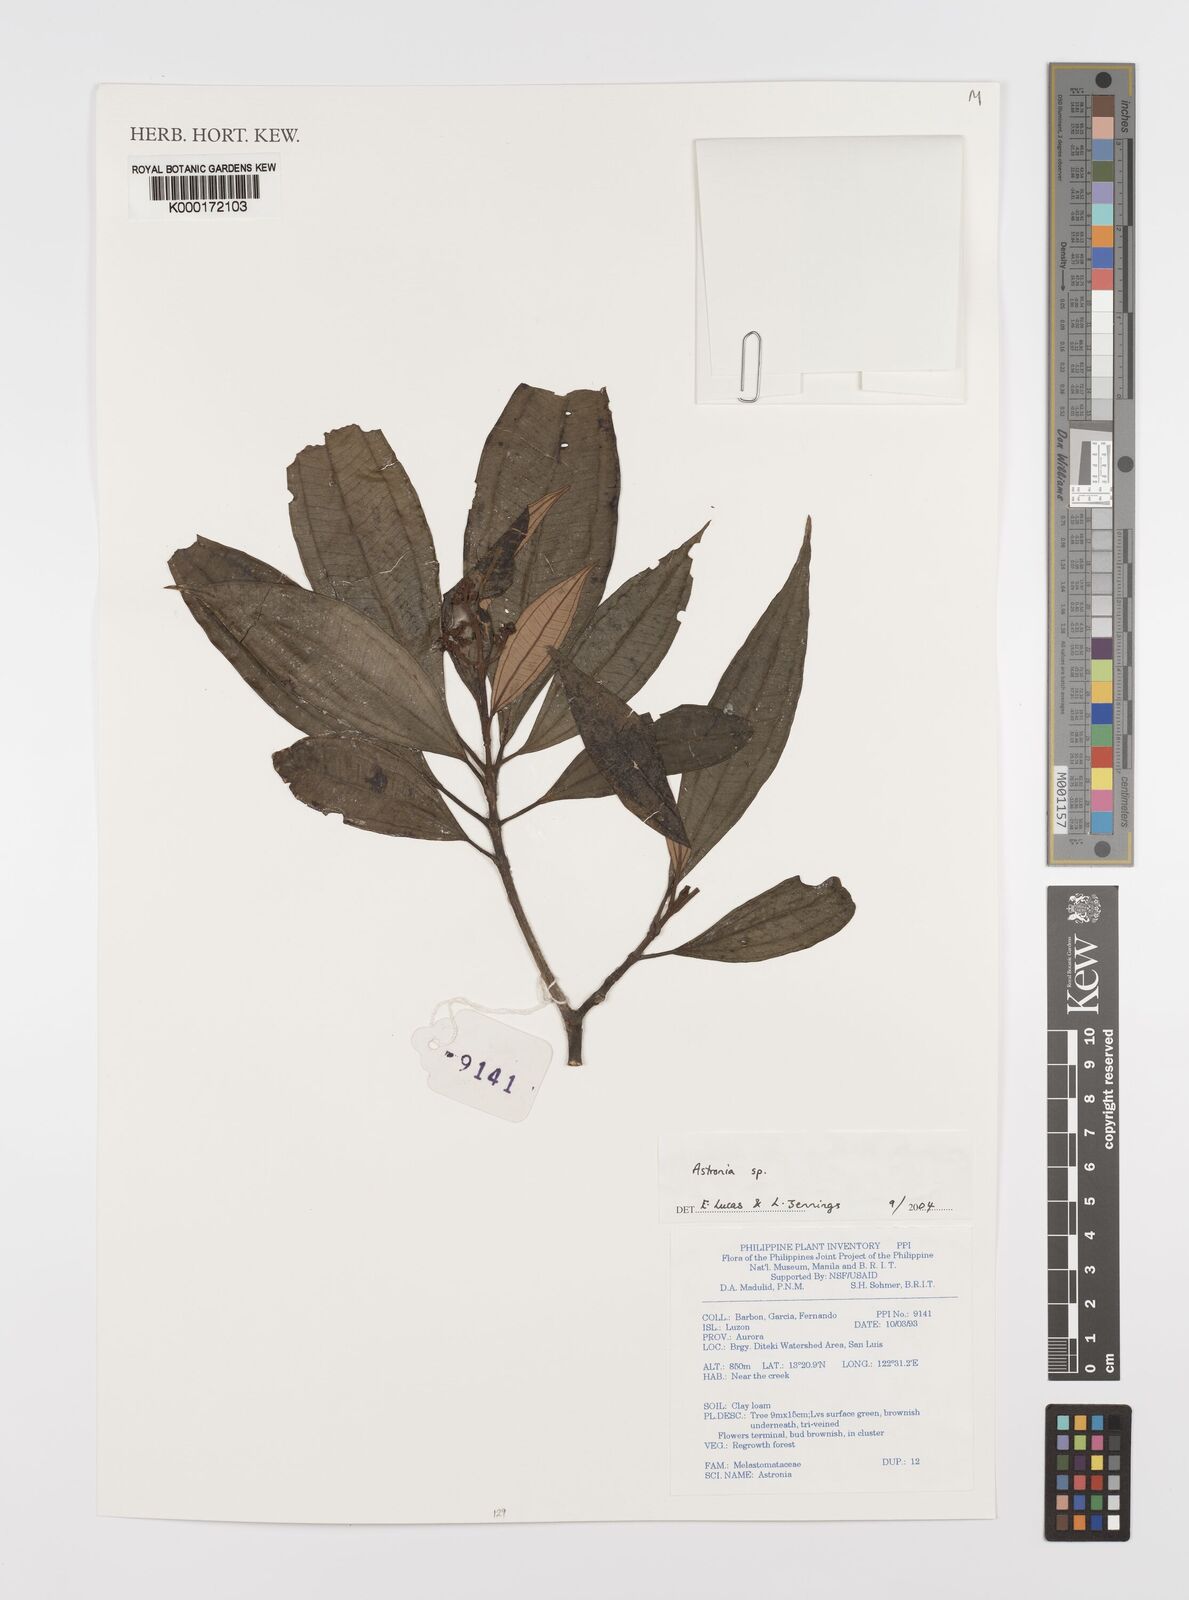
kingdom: Plantae
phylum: Tracheophyta
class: Magnoliopsida
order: Myrtales
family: Melastomataceae
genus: Astronia
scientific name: Astronia
